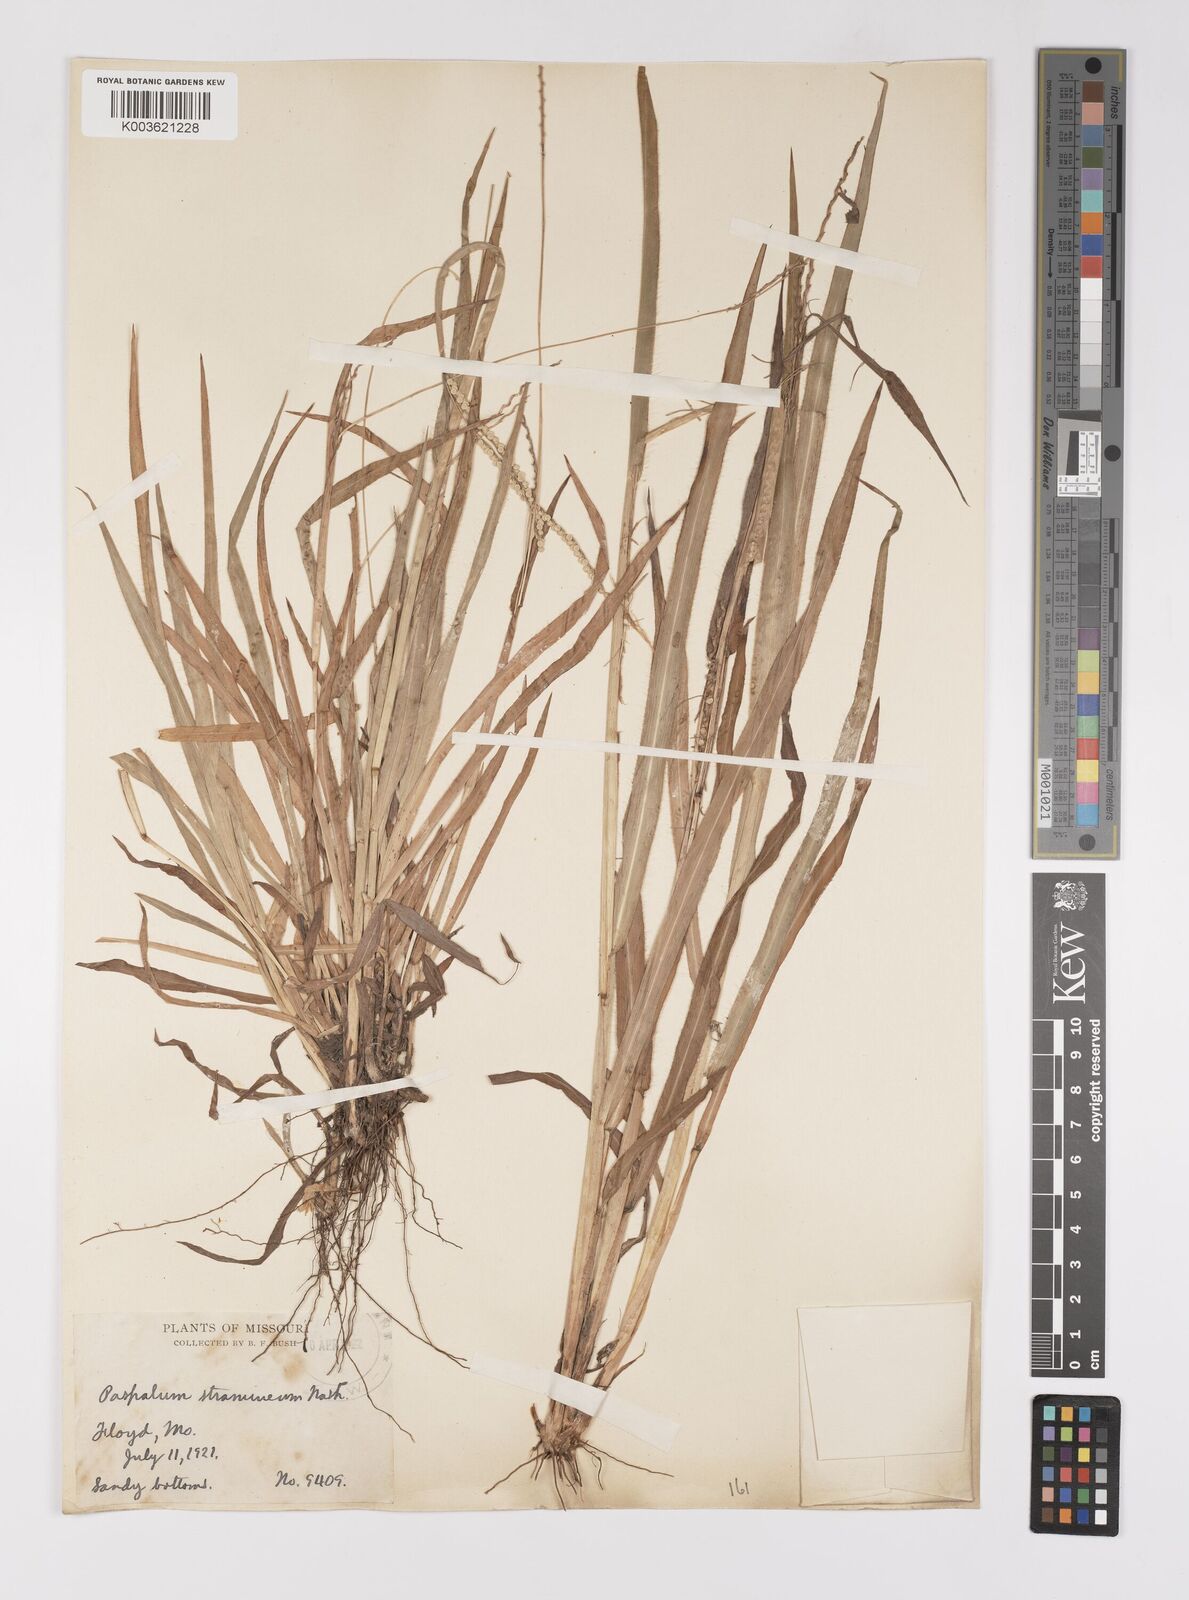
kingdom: Plantae
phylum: Tracheophyta
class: Liliopsida
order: Poales
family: Poaceae
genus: Paspalum
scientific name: Paspalum setaceum
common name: Slender paspalum
